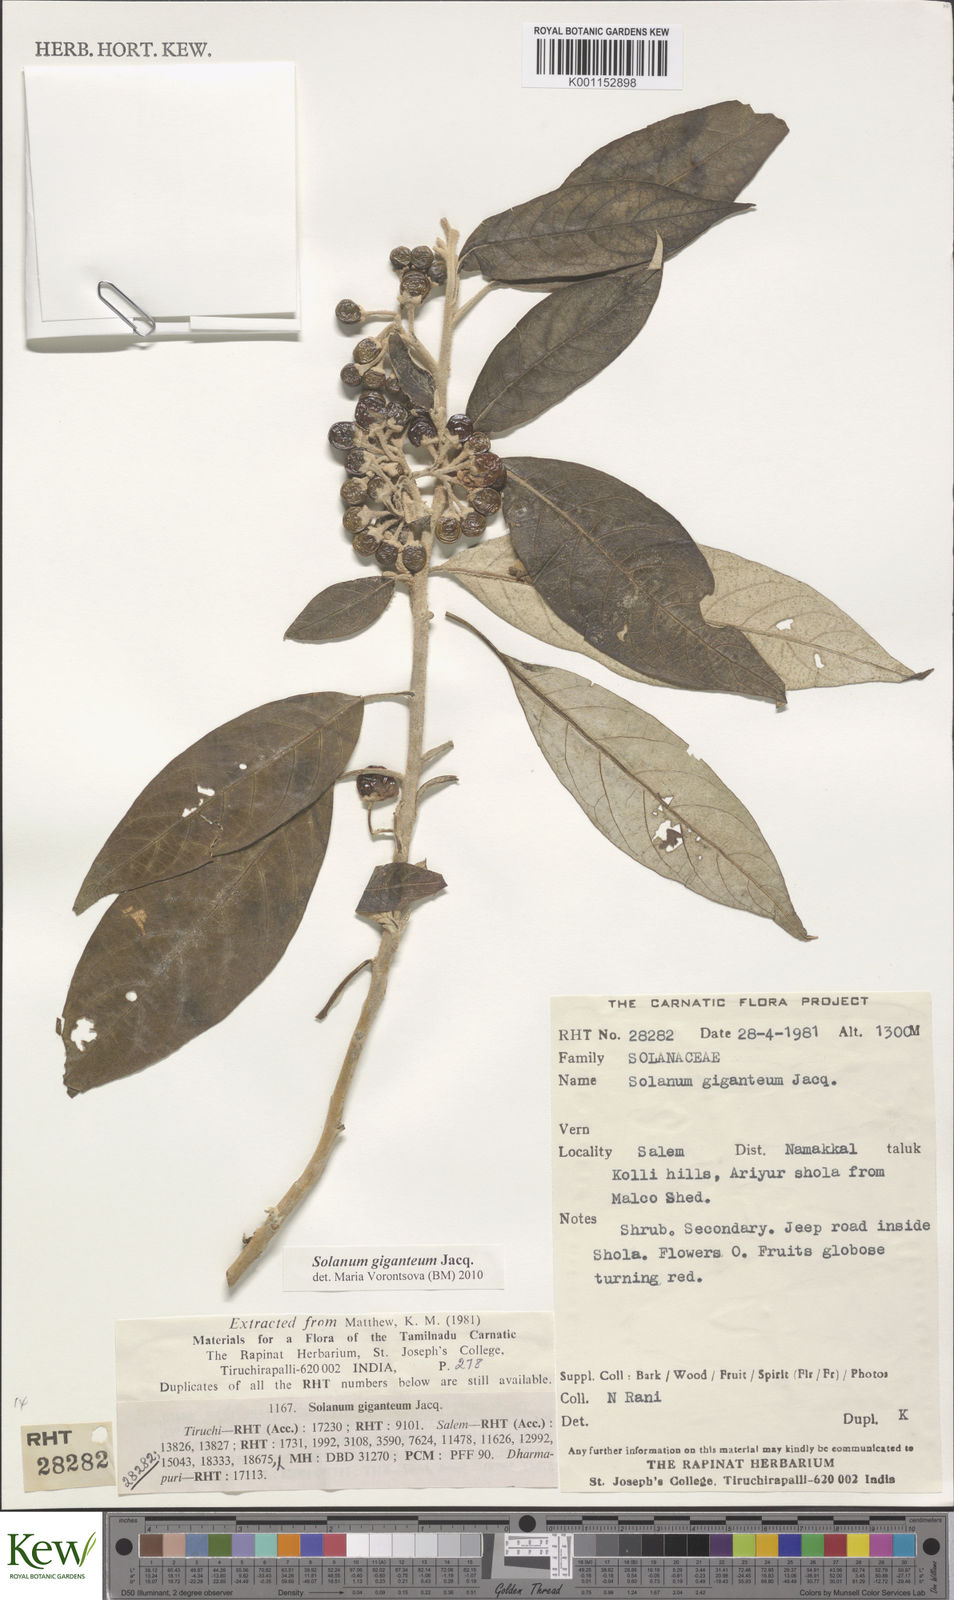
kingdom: Plantae
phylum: Tracheophyta
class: Magnoliopsida
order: Solanales
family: Solanaceae
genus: Solanum
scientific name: Solanum giganteum
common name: Healing-leaf-tree
